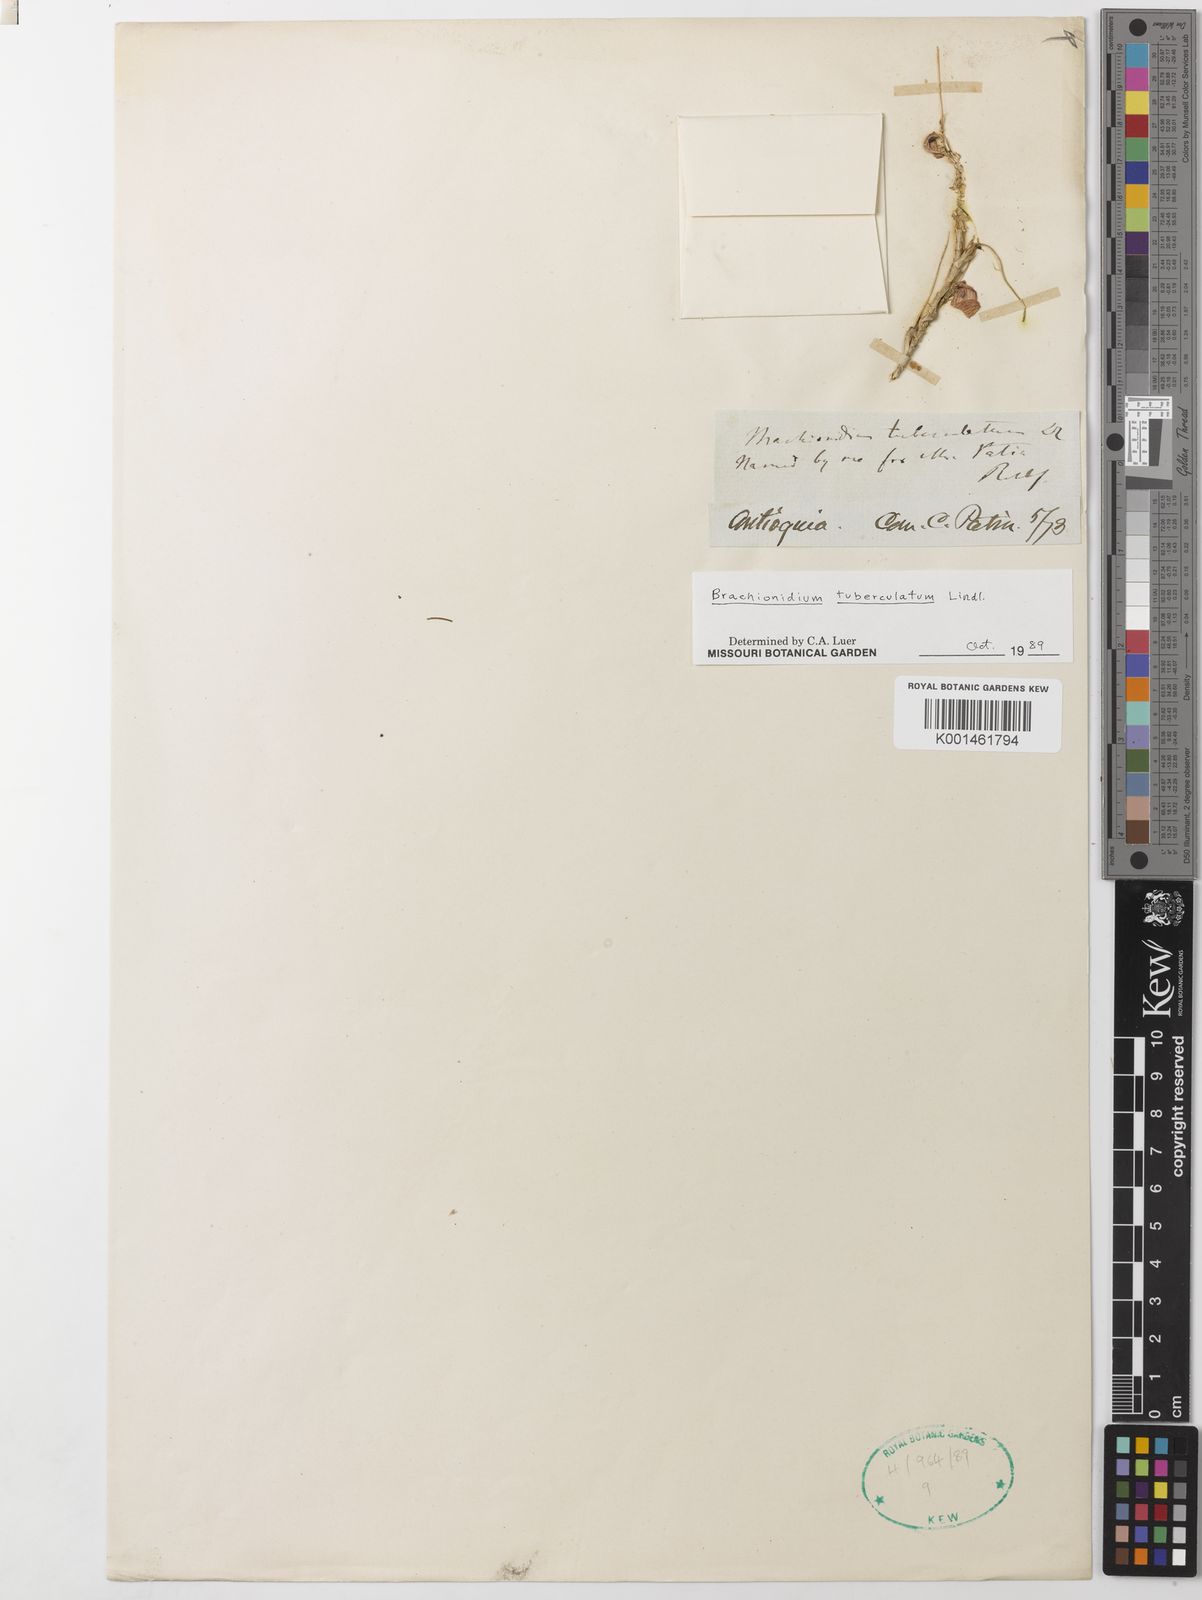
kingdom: Plantae
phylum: Tracheophyta
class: Liliopsida
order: Asparagales
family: Orchidaceae
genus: Brachionidium
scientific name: Brachionidium tuberculatum
